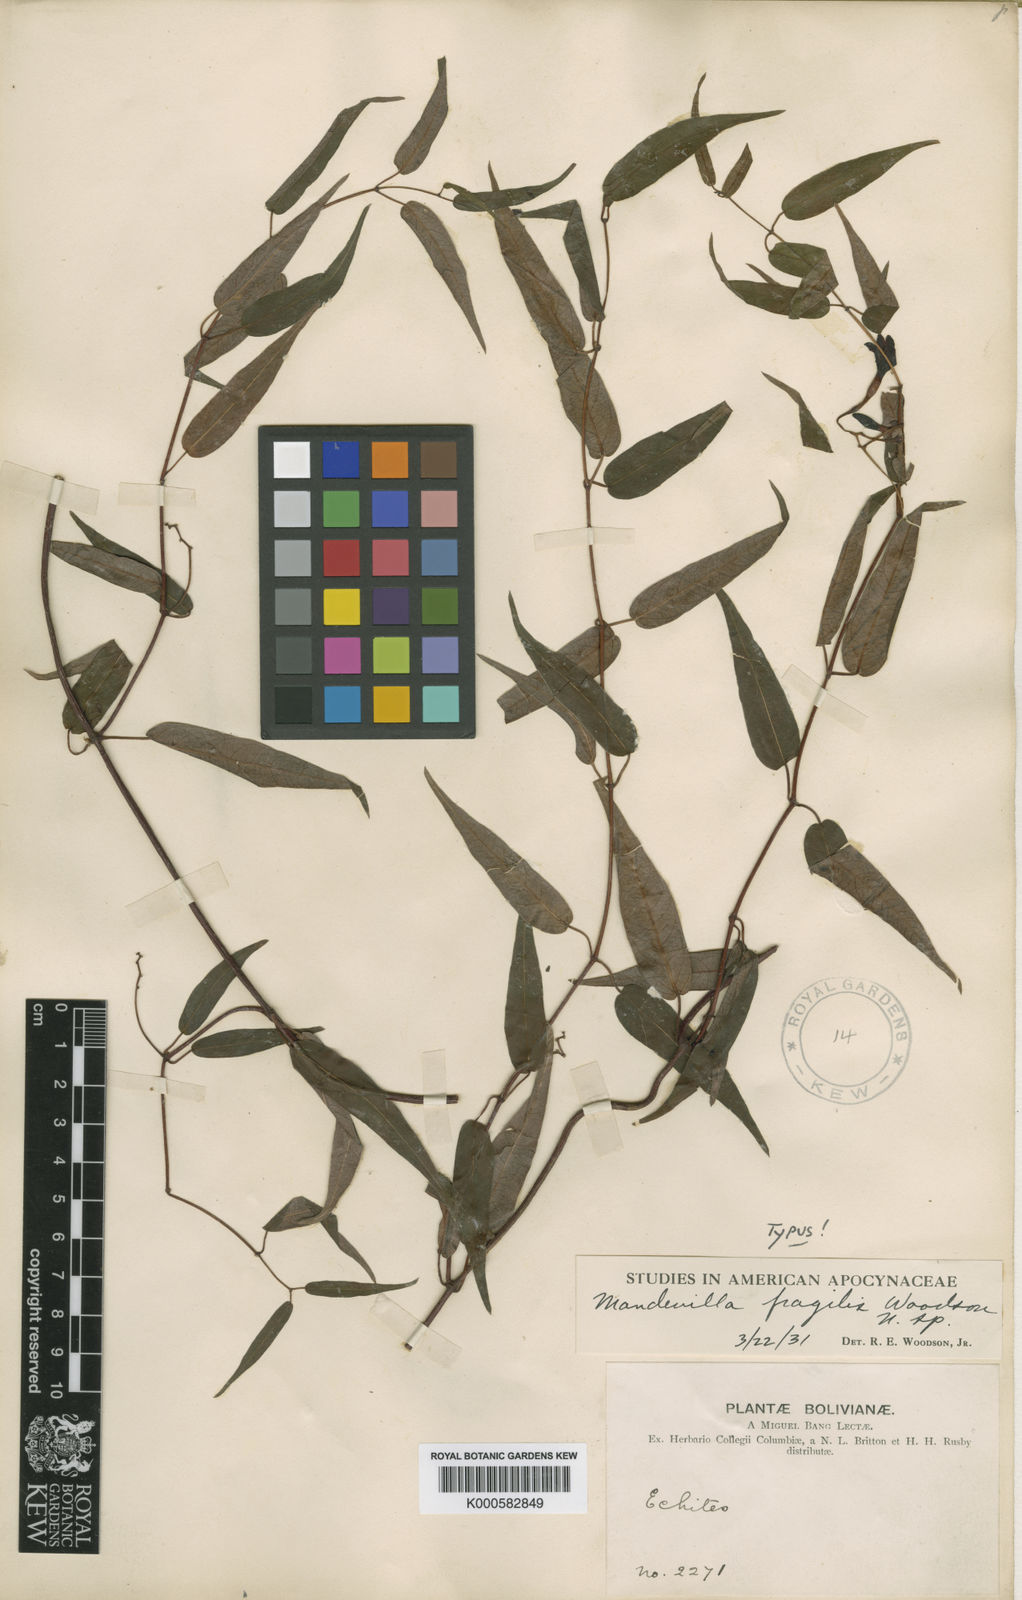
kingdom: Plantae
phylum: Tracheophyta
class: Magnoliopsida
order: Gentianales
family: Apocynaceae
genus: Mandevilla
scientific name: Mandevilla fragilis
